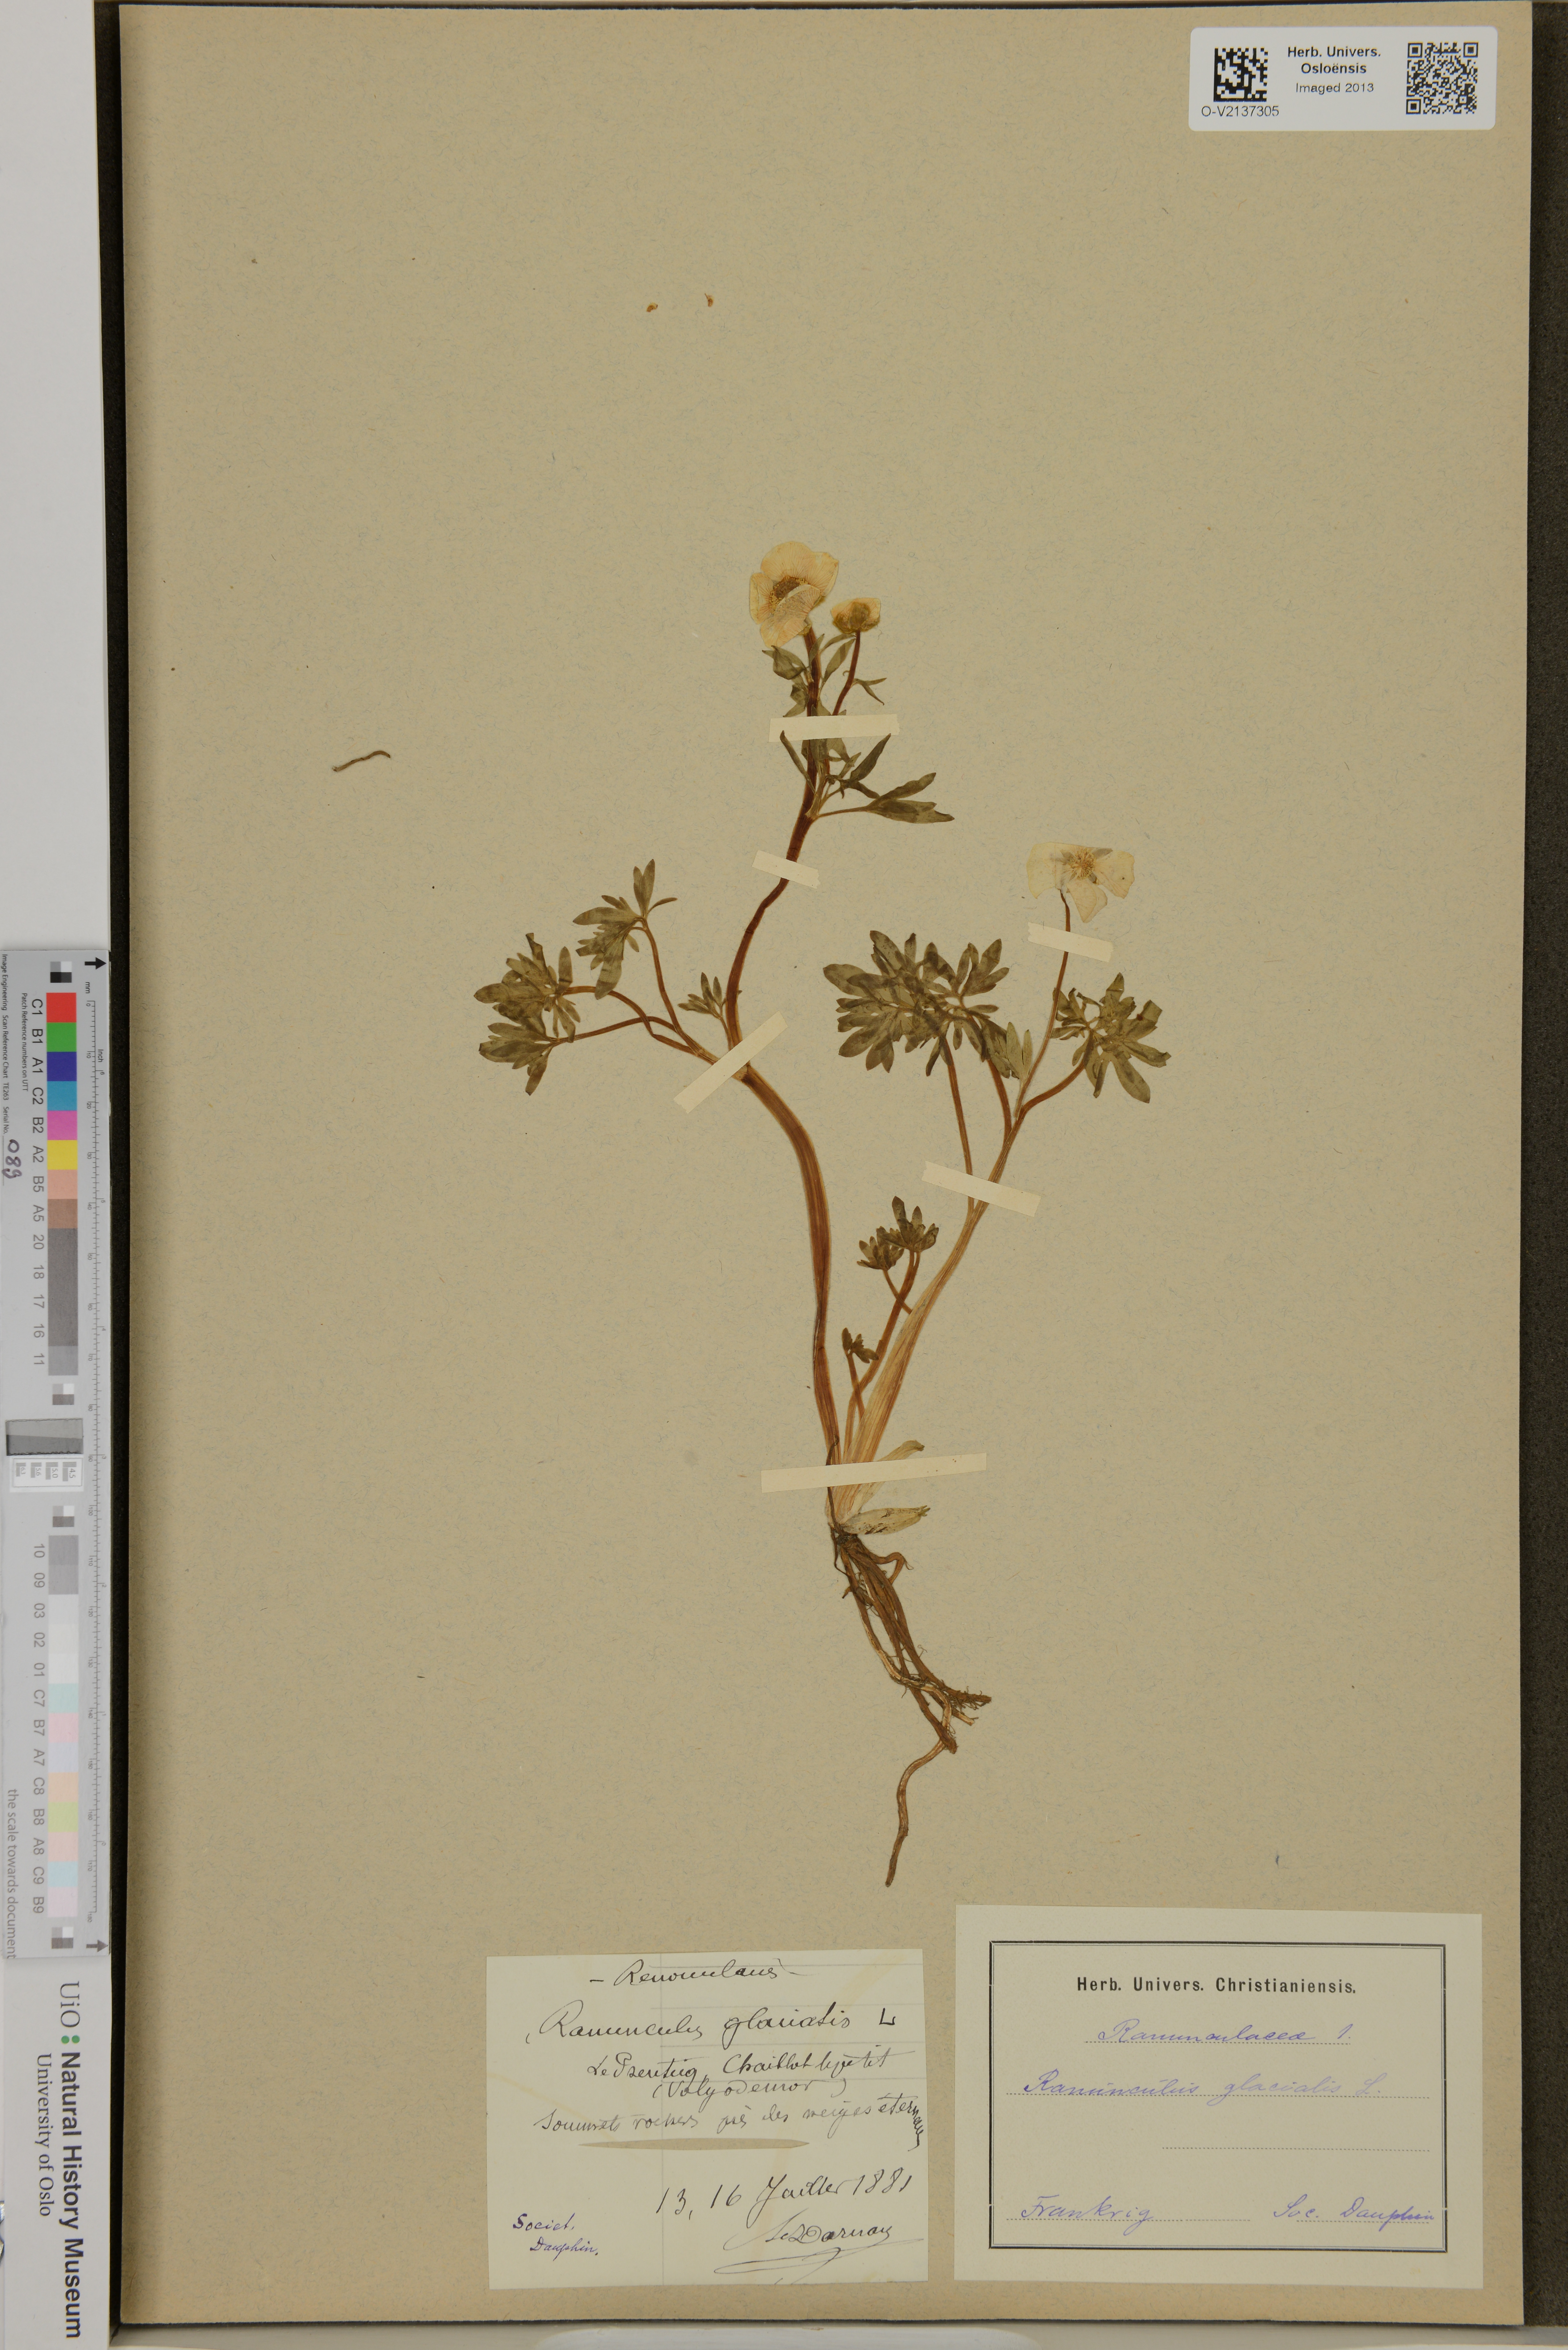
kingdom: Plantae
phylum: Tracheophyta
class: Magnoliopsida
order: Ranunculales
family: Ranunculaceae
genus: Ranunculus
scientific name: Ranunculus glacialis
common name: Glacier buttercup
